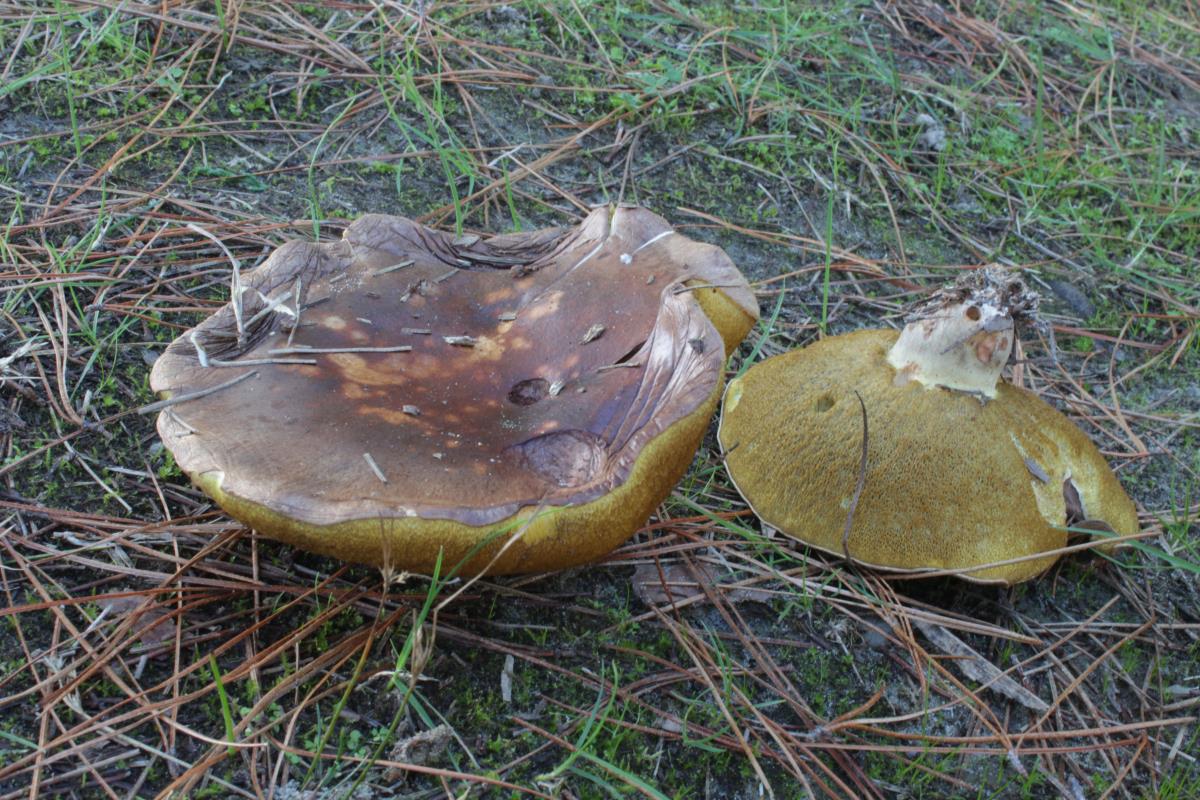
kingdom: Fungi
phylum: Basidiomycota
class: Agaricomycetes
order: Boletales
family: Suillaceae
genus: Suillus
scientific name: Suillus quiescens
